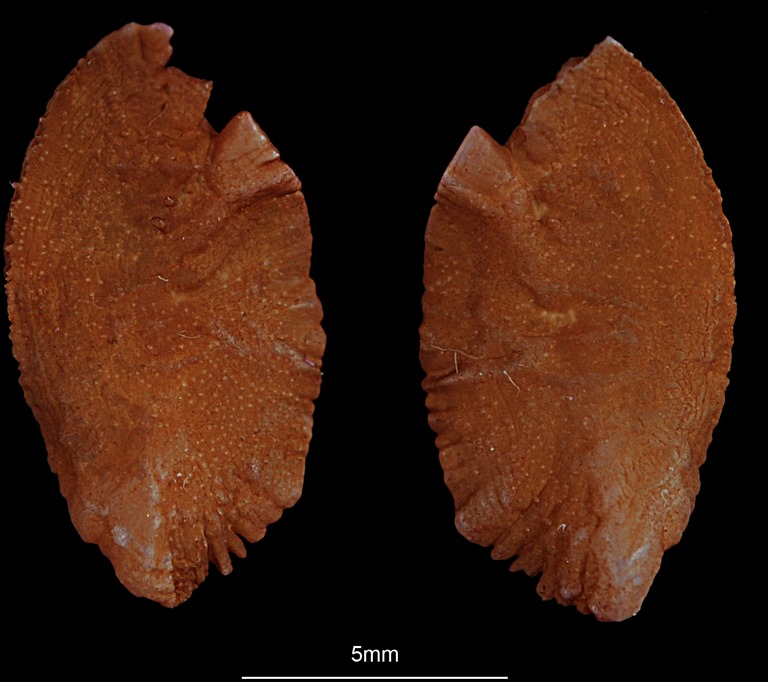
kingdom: Animalia
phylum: Chordata
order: Perciformes
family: Lutjanidae
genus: Lutjanus
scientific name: Lutjanus lutjanus
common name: Bigeye snapper
